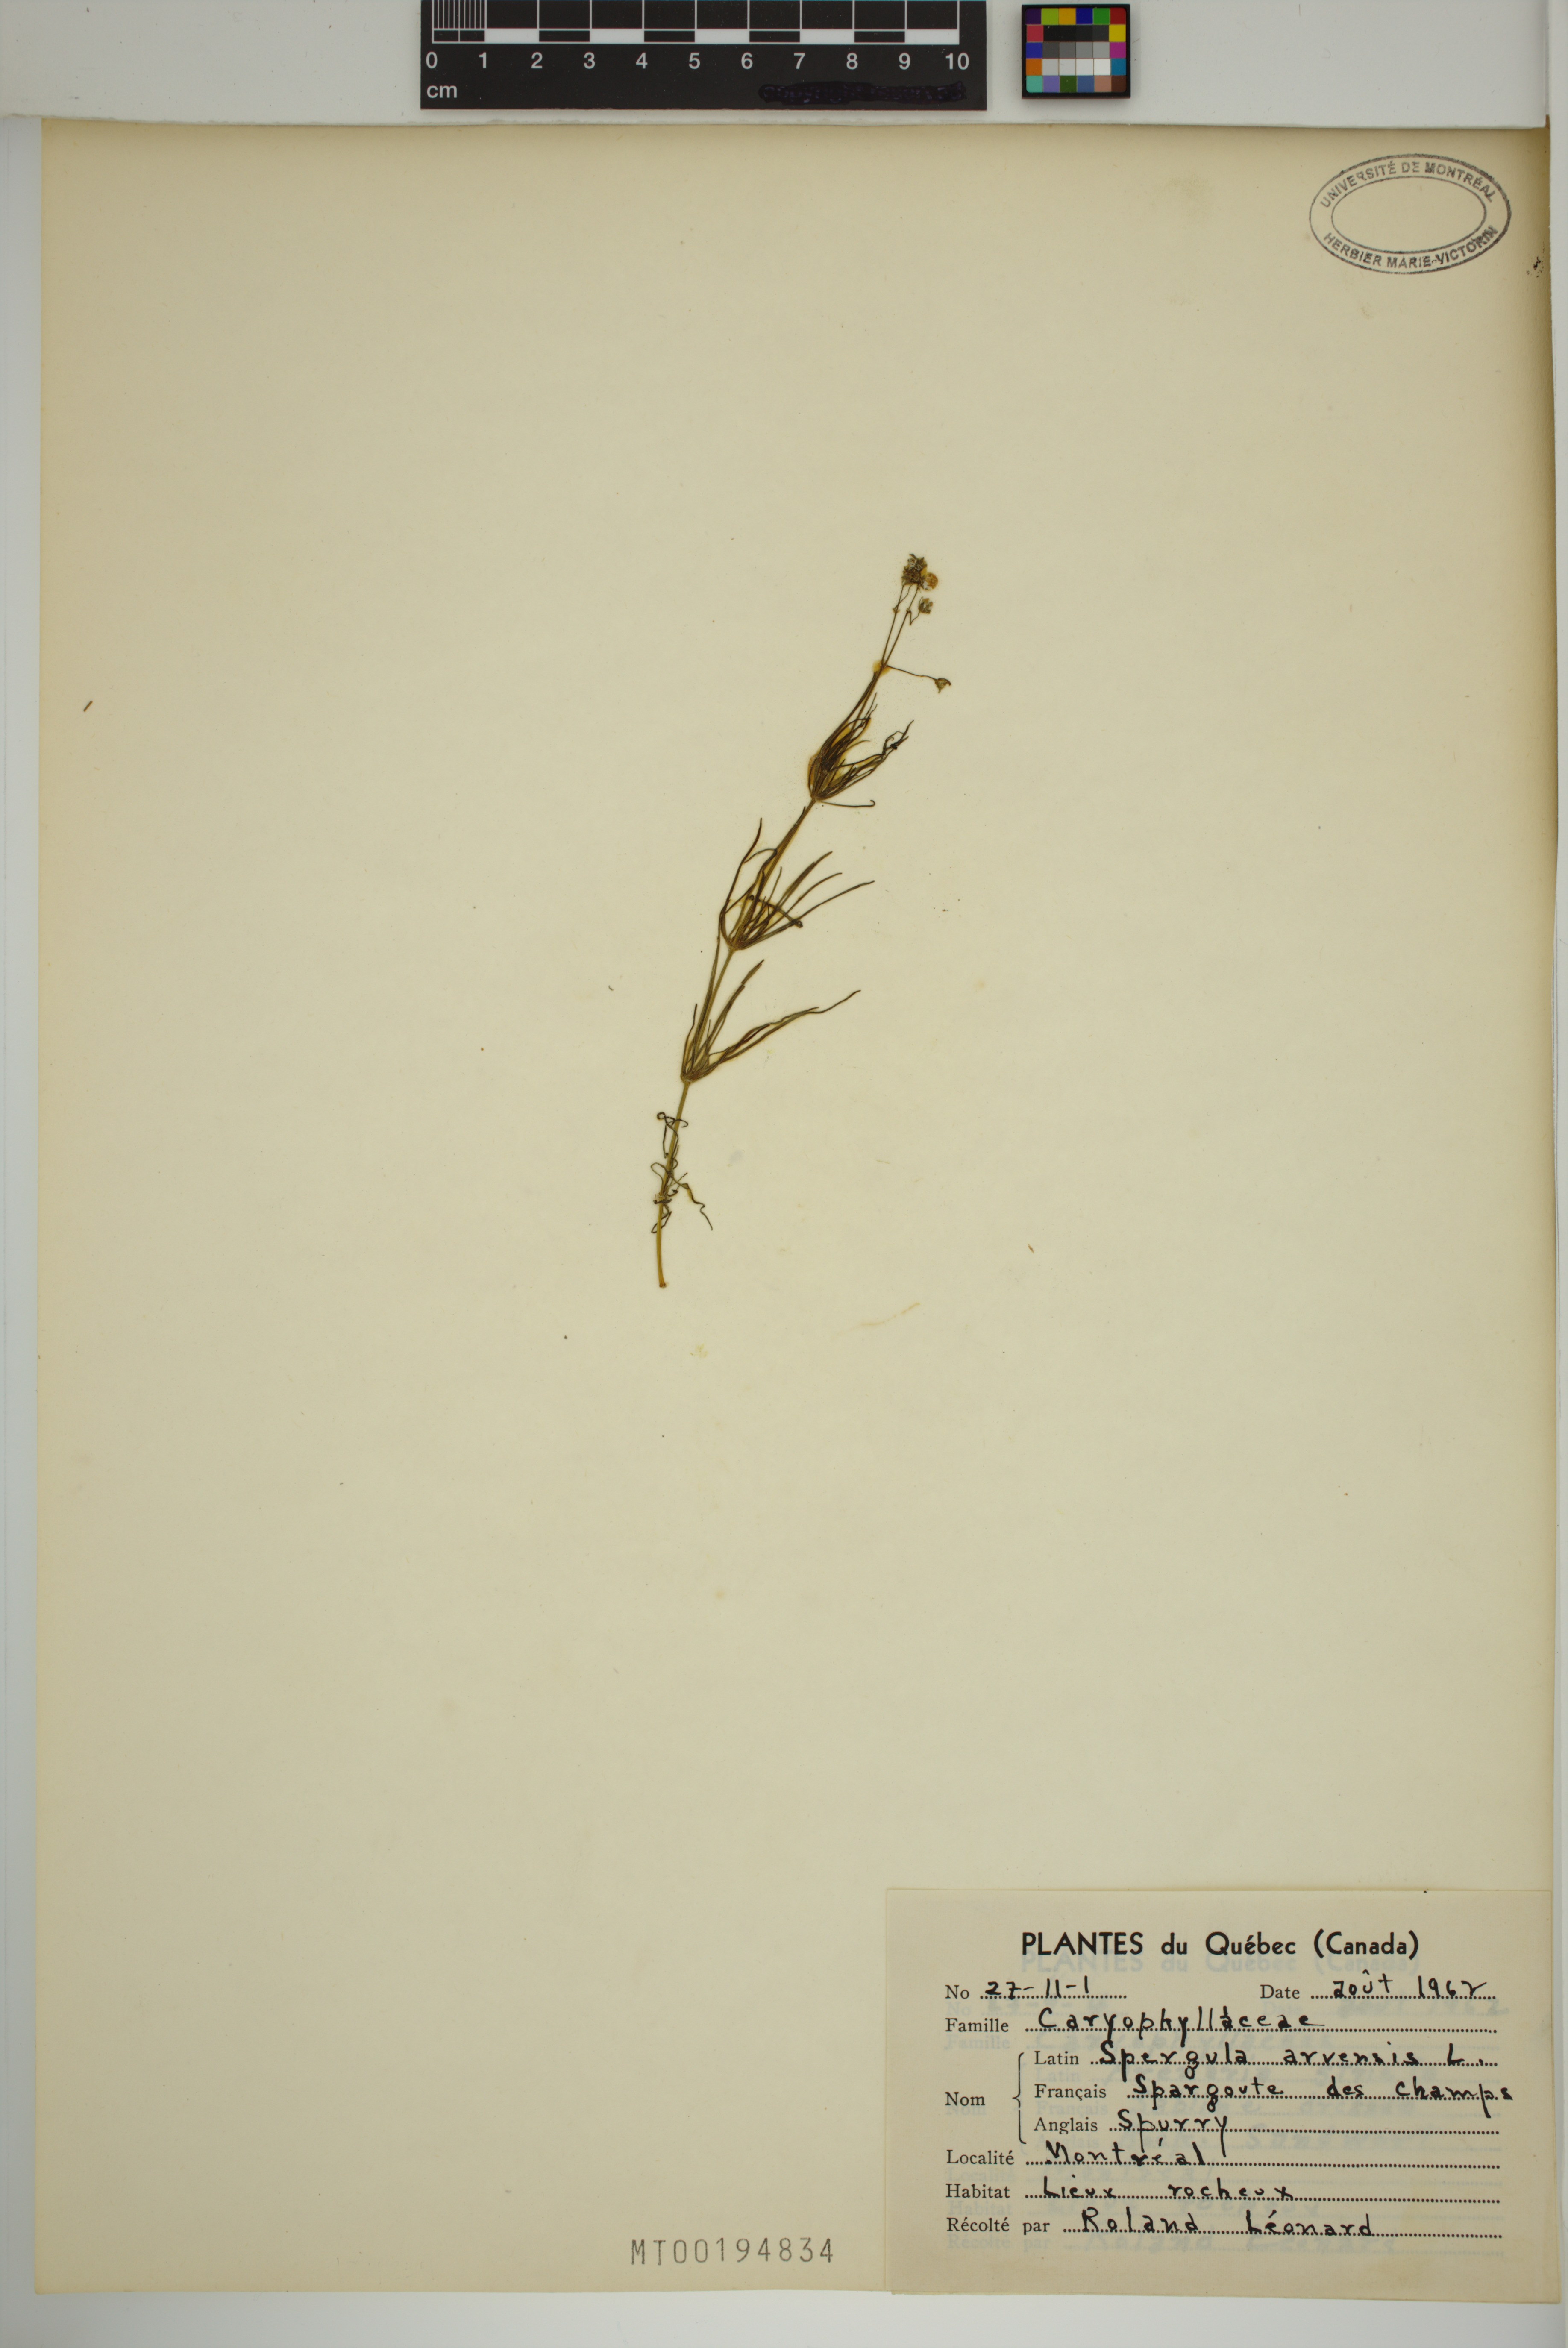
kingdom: Plantae
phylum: Tracheophyta
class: Magnoliopsida
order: Caryophyllales
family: Caryophyllaceae
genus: Spergula
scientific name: Spergula arvensis
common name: Corn spurrey
